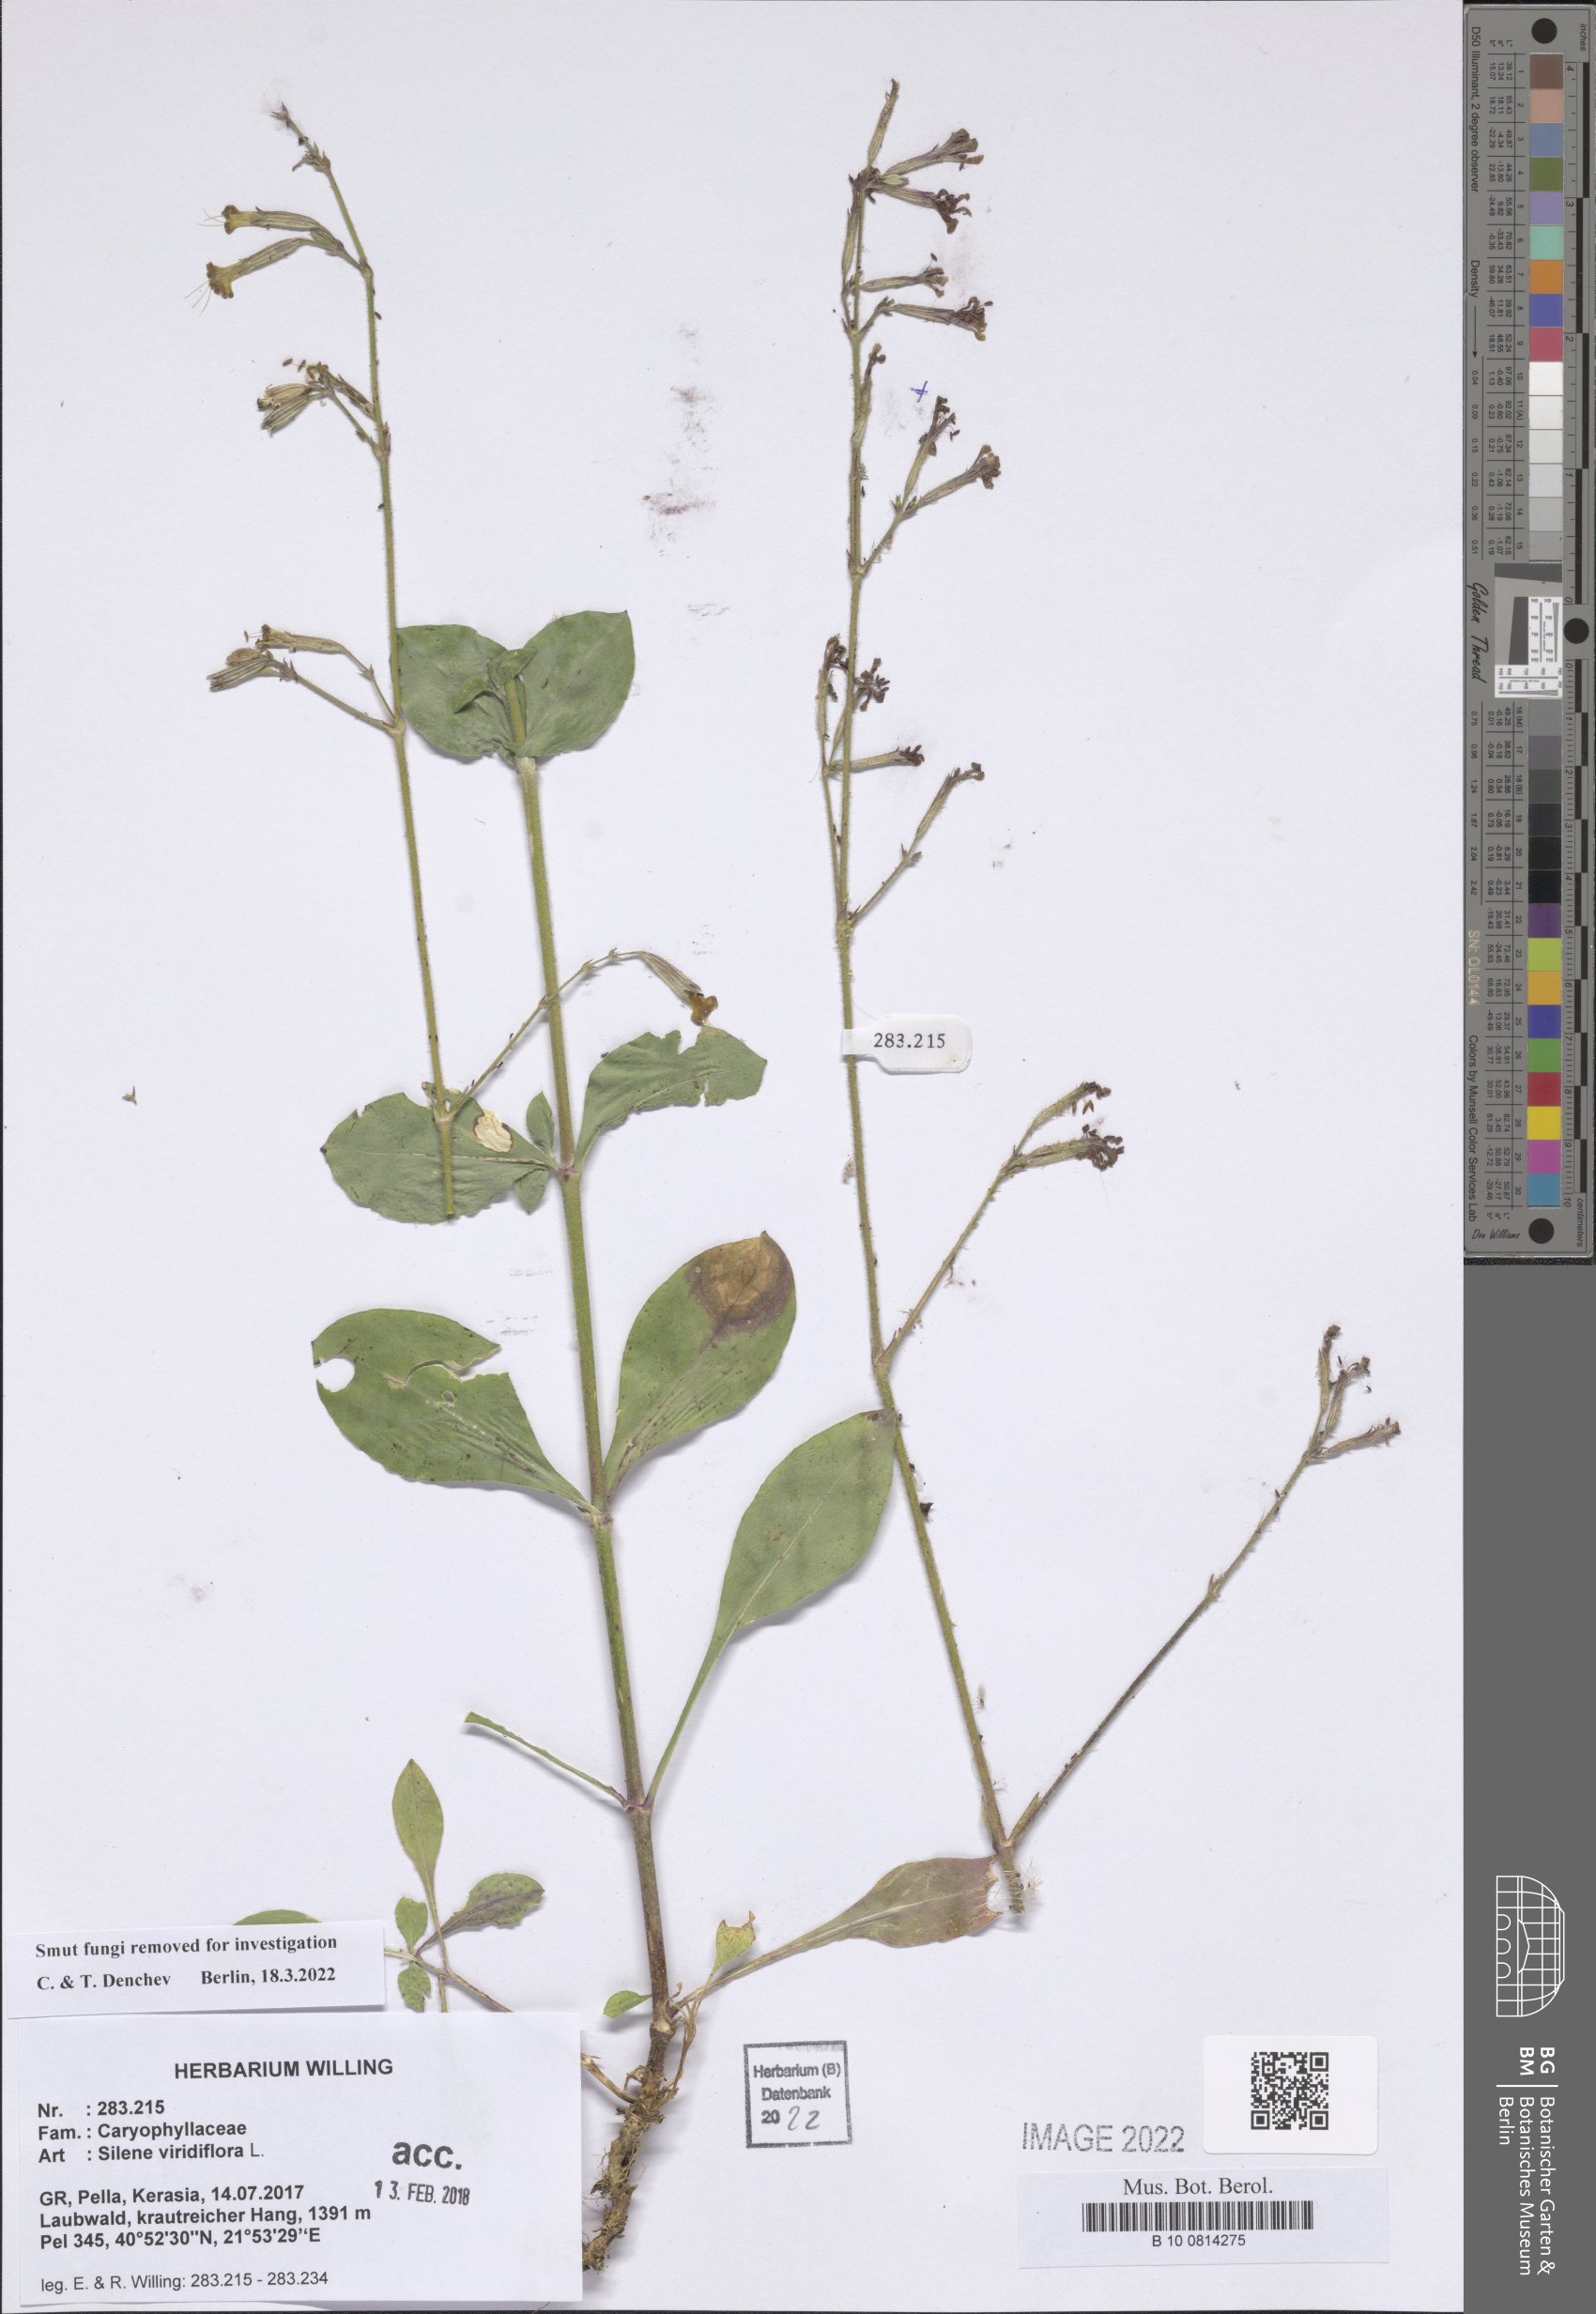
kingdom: Plantae
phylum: Tracheophyta
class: Magnoliopsida
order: Caryophyllales
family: Caryophyllaceae
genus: Silene
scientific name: Silene viridiflora
